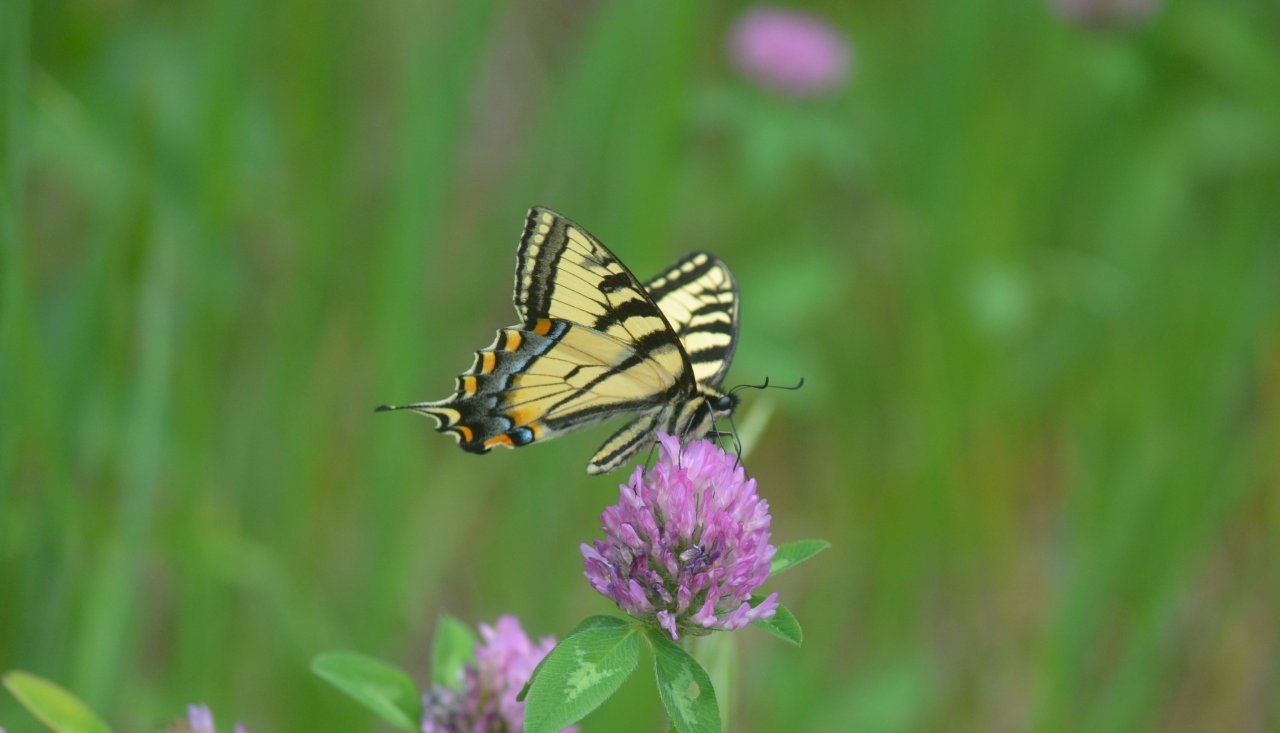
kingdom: Animalia
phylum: Arthropoda
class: Insecta
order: Lepidoptera
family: Papilionidae
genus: Pterourus
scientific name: Pterourus canadensis
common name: Canadian Tiger Swallowtail
